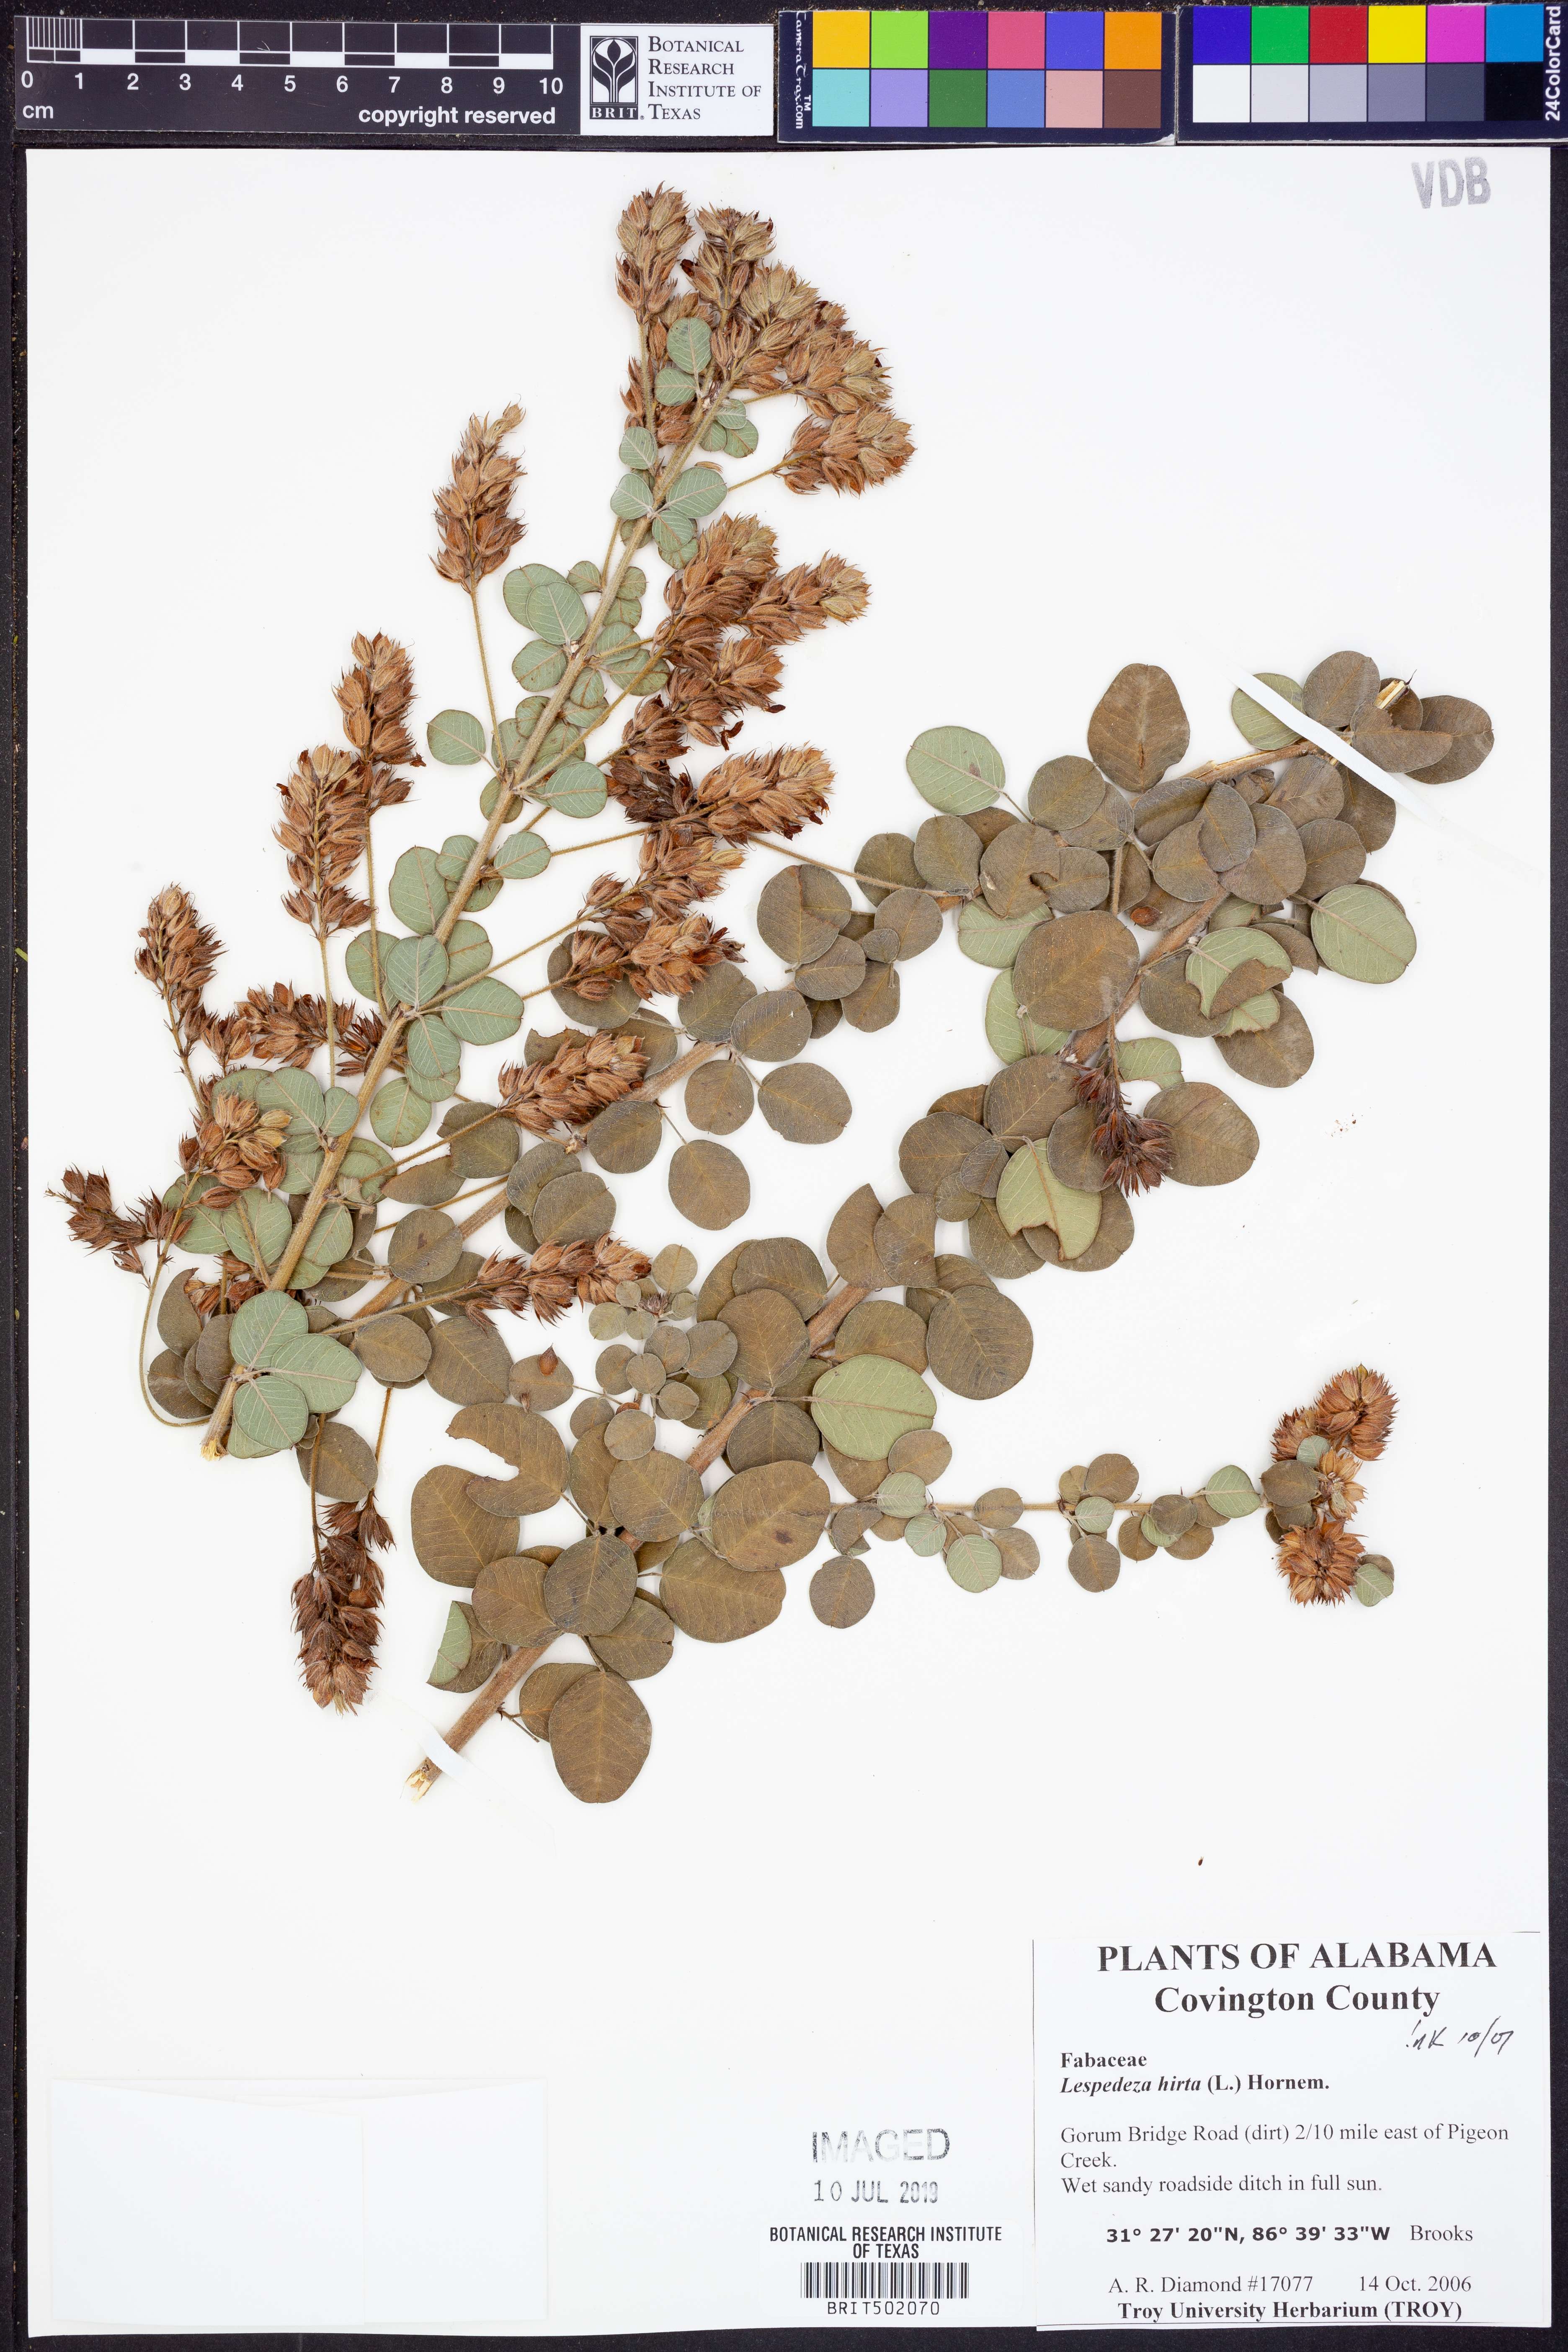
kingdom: Plantae
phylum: Tracheophyta
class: Magnoliopsida
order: Fabales
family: Fabaceae
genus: Lespedeza
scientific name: Lespedeza hirta
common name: Hairy lespedeza
